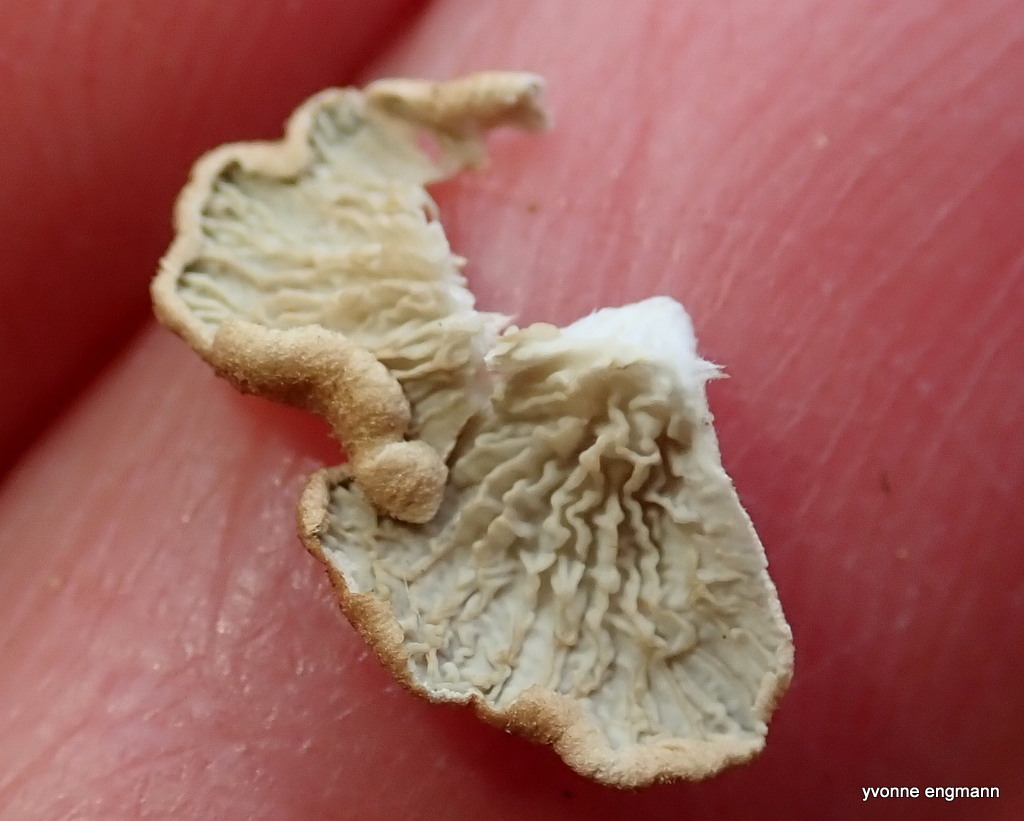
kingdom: Fungi
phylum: Basidiomycota
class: Agaricomycetes
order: Amylocorticiales
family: Amylocorticiaceae
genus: Plicaturopsis
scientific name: Plicaturopsis crispa
